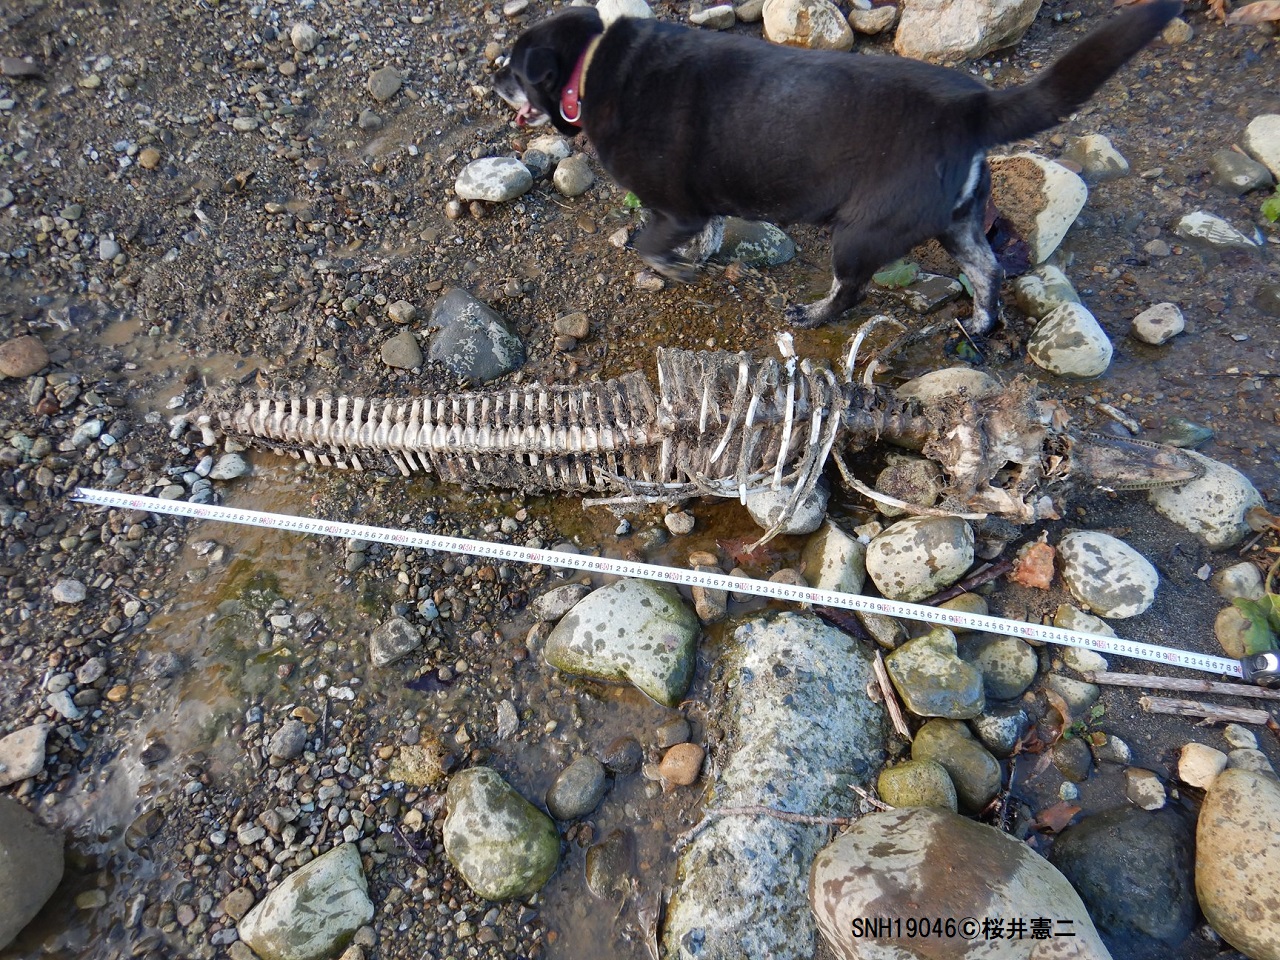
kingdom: Animalia
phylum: Chordata
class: Mammalia
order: Cetacea
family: Delphinidae
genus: Lagenorhynchus
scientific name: Lagenorhynchus obliquidens
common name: Pacific white-sided dolphin
